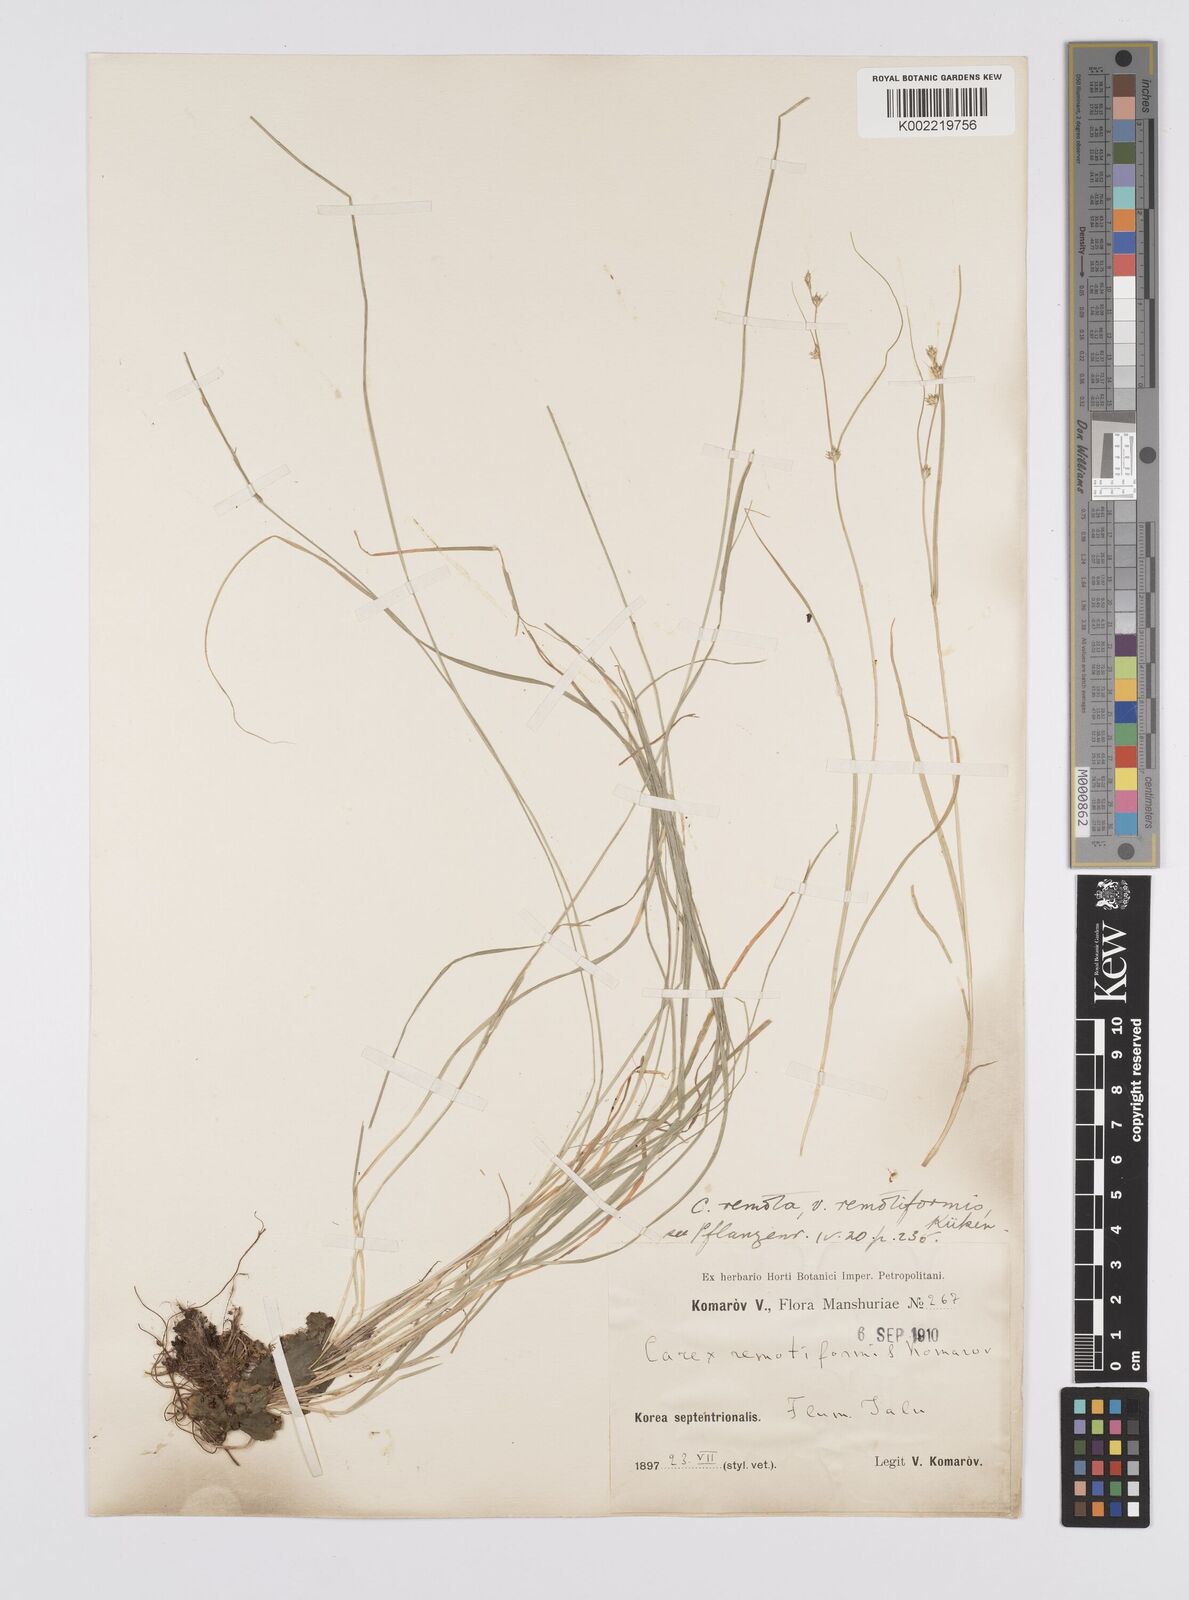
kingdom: Plantae
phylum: Tracheophyta
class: Liliopsida
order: Poales
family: Cyperaceae
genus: Carex
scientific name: Carex remota
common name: Remote sedge
